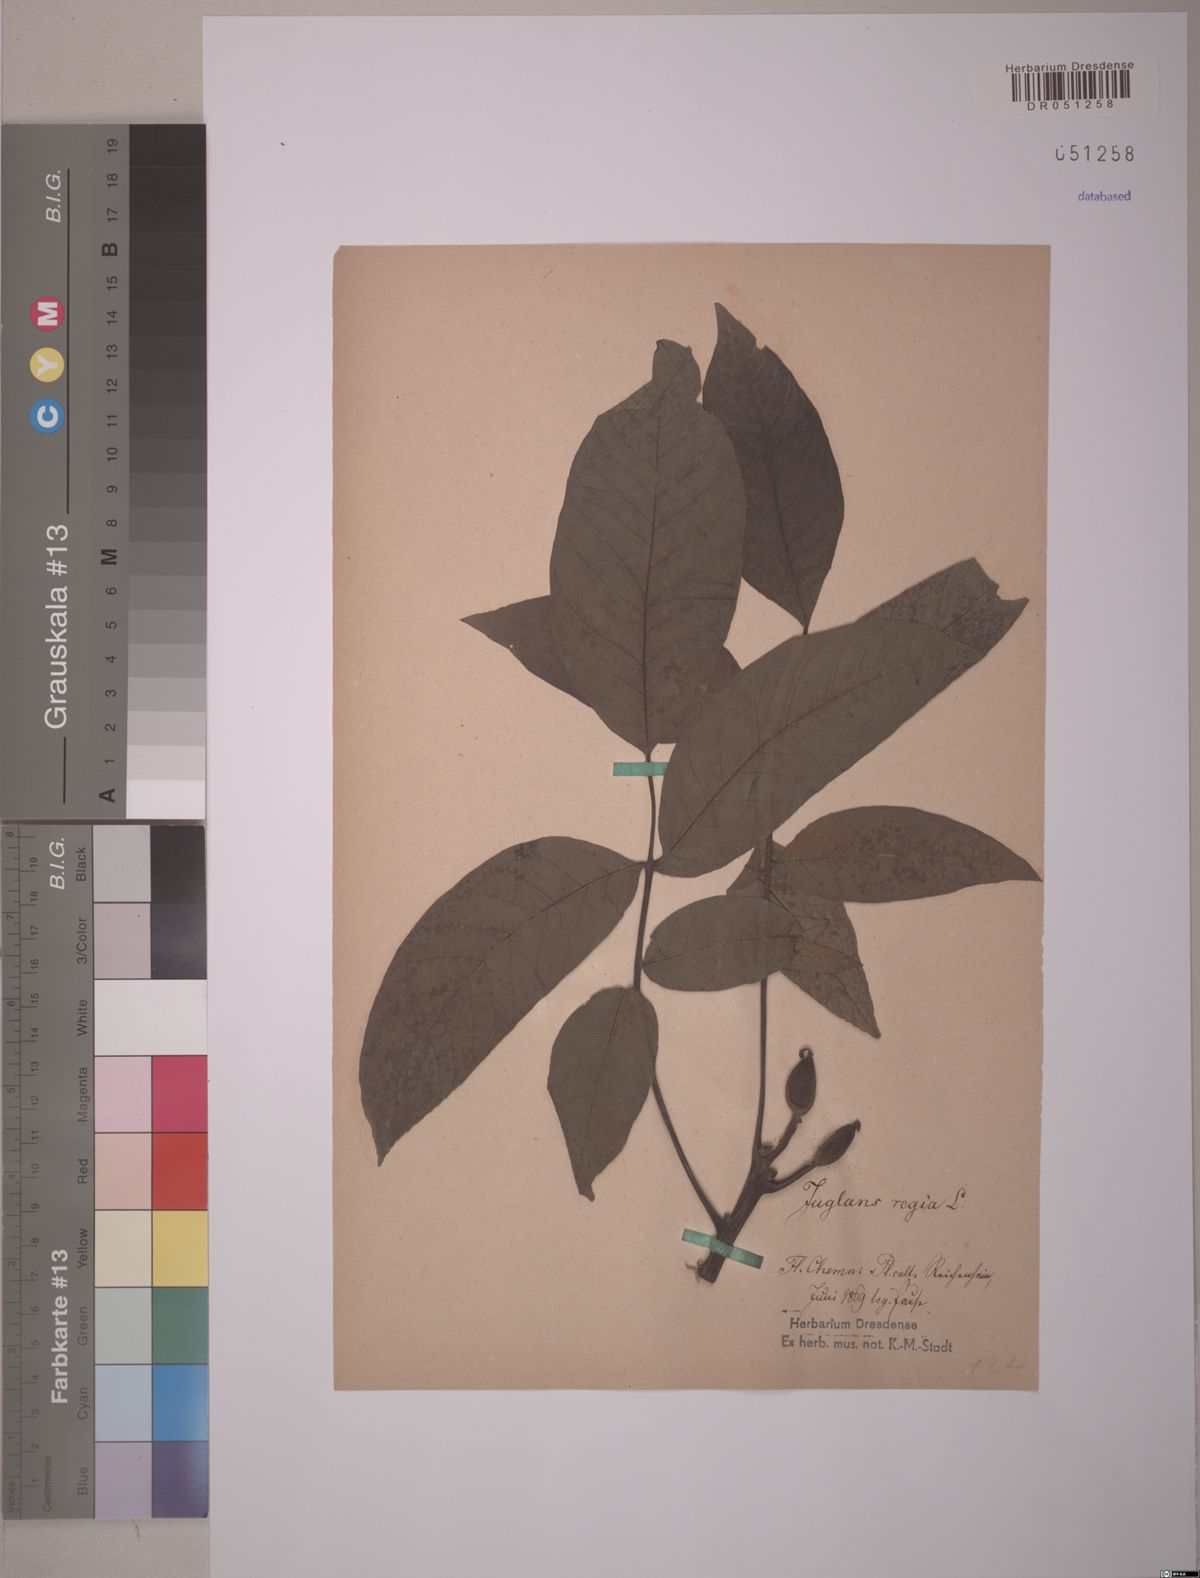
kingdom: Plantae
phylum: Tracheophyta
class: Magnoliopsida
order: Fagales
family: Juglandaceae
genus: Juglans
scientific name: Juglans regia
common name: Walnut
